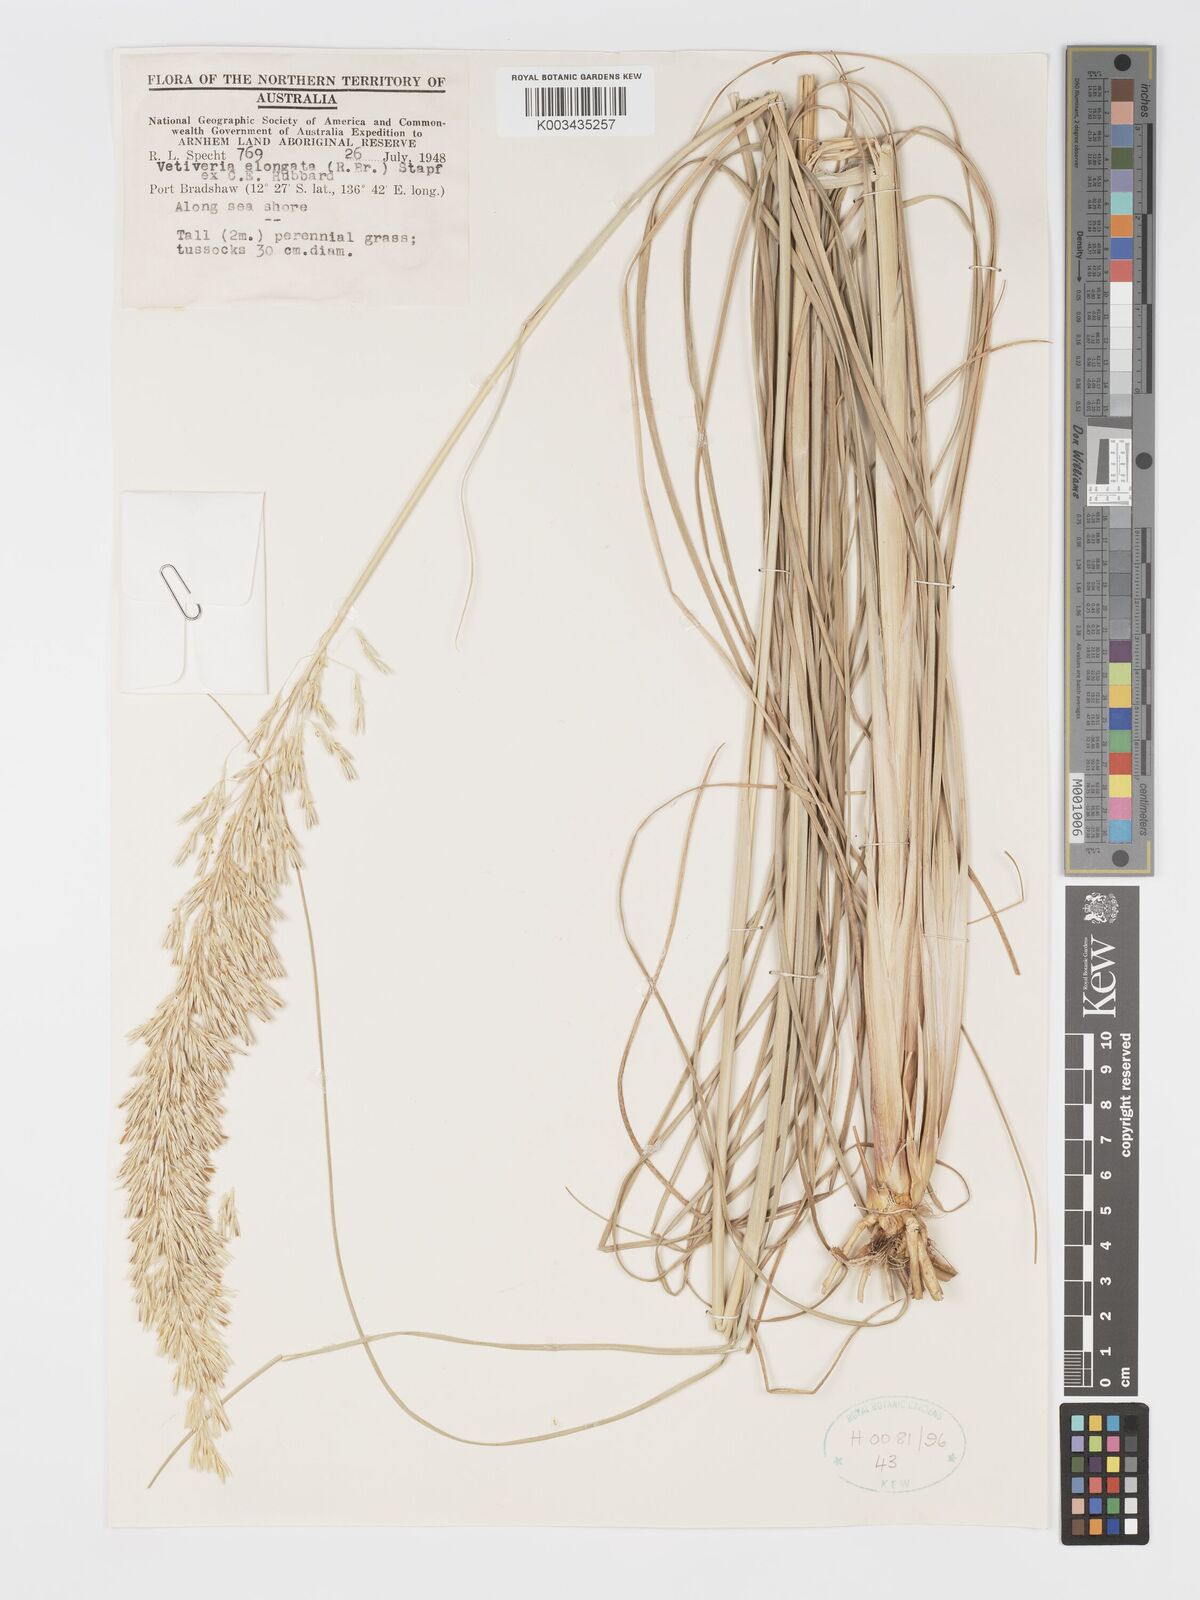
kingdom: Plantae
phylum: Tracheophyta
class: Liliopsida
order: Poales
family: Poaceae
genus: Chrysopogon
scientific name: Chrysopogon elongatus
